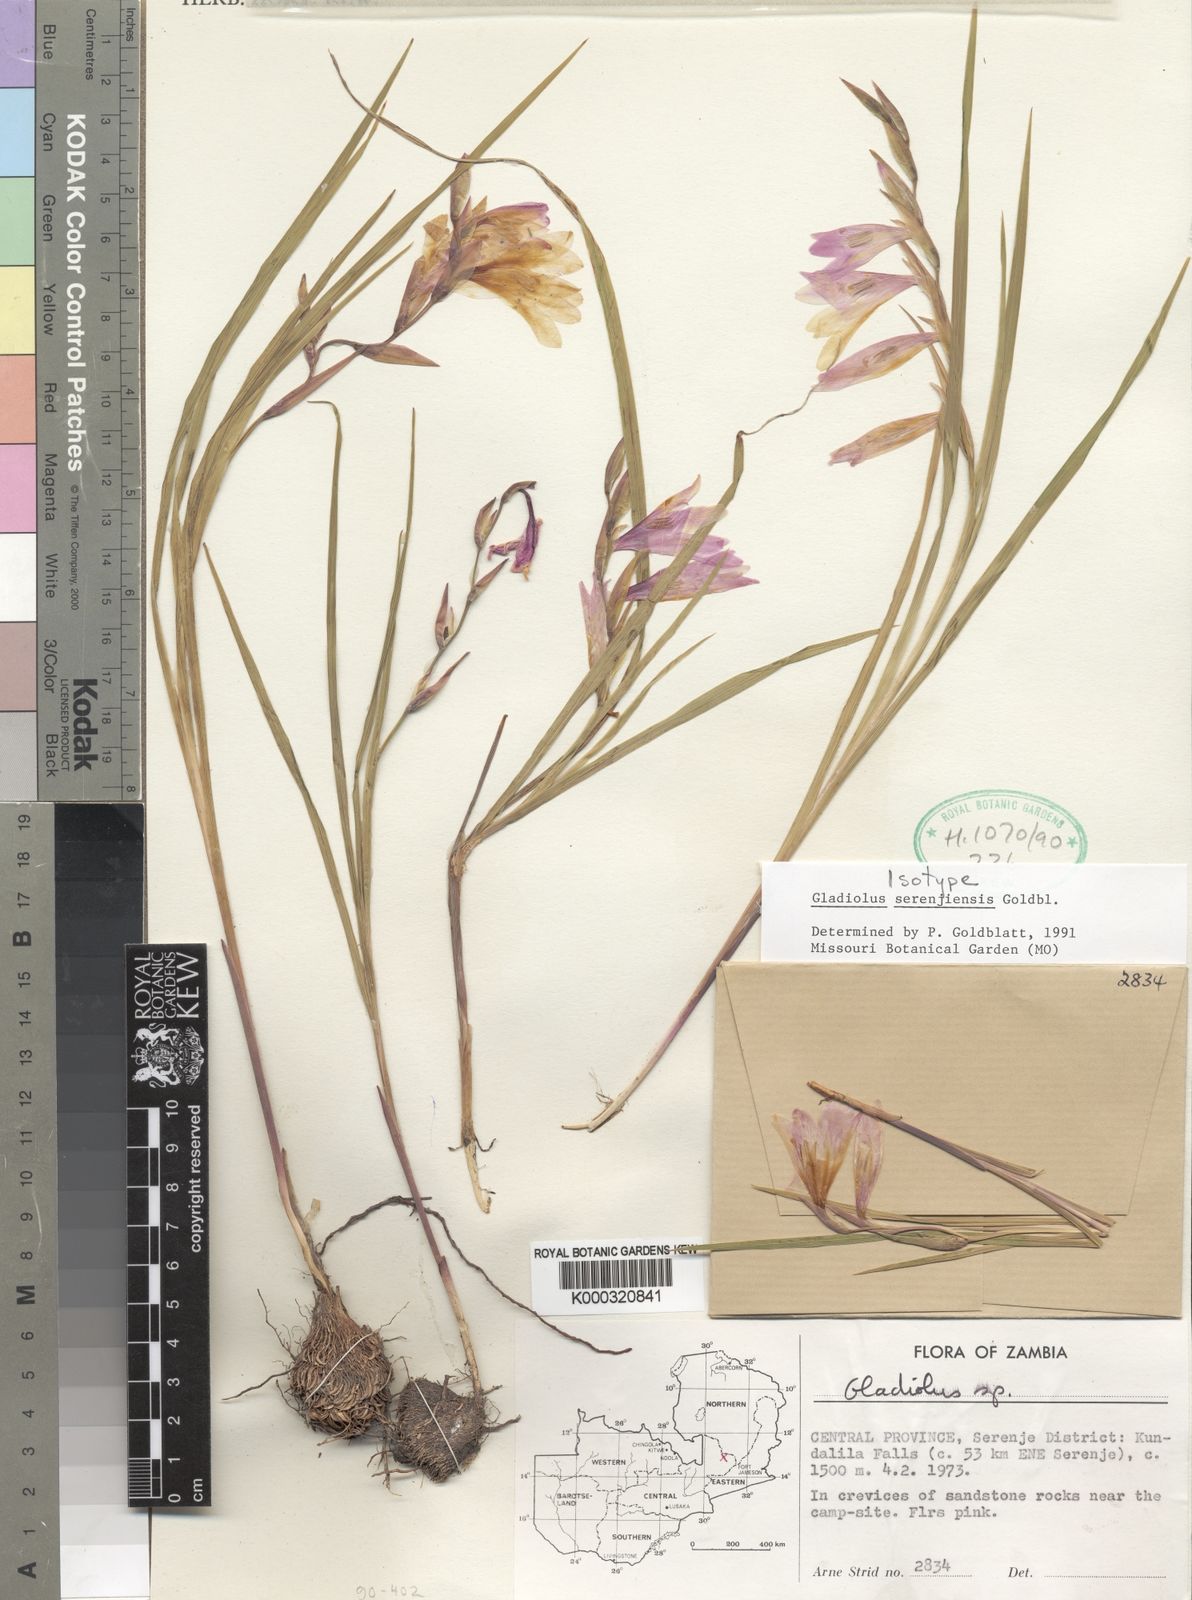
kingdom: Plantae
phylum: Tracheophyta
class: Liliopsida
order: Asparagales
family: Iridaceae
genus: Gladiolus
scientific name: Gladiolus serenjensis
